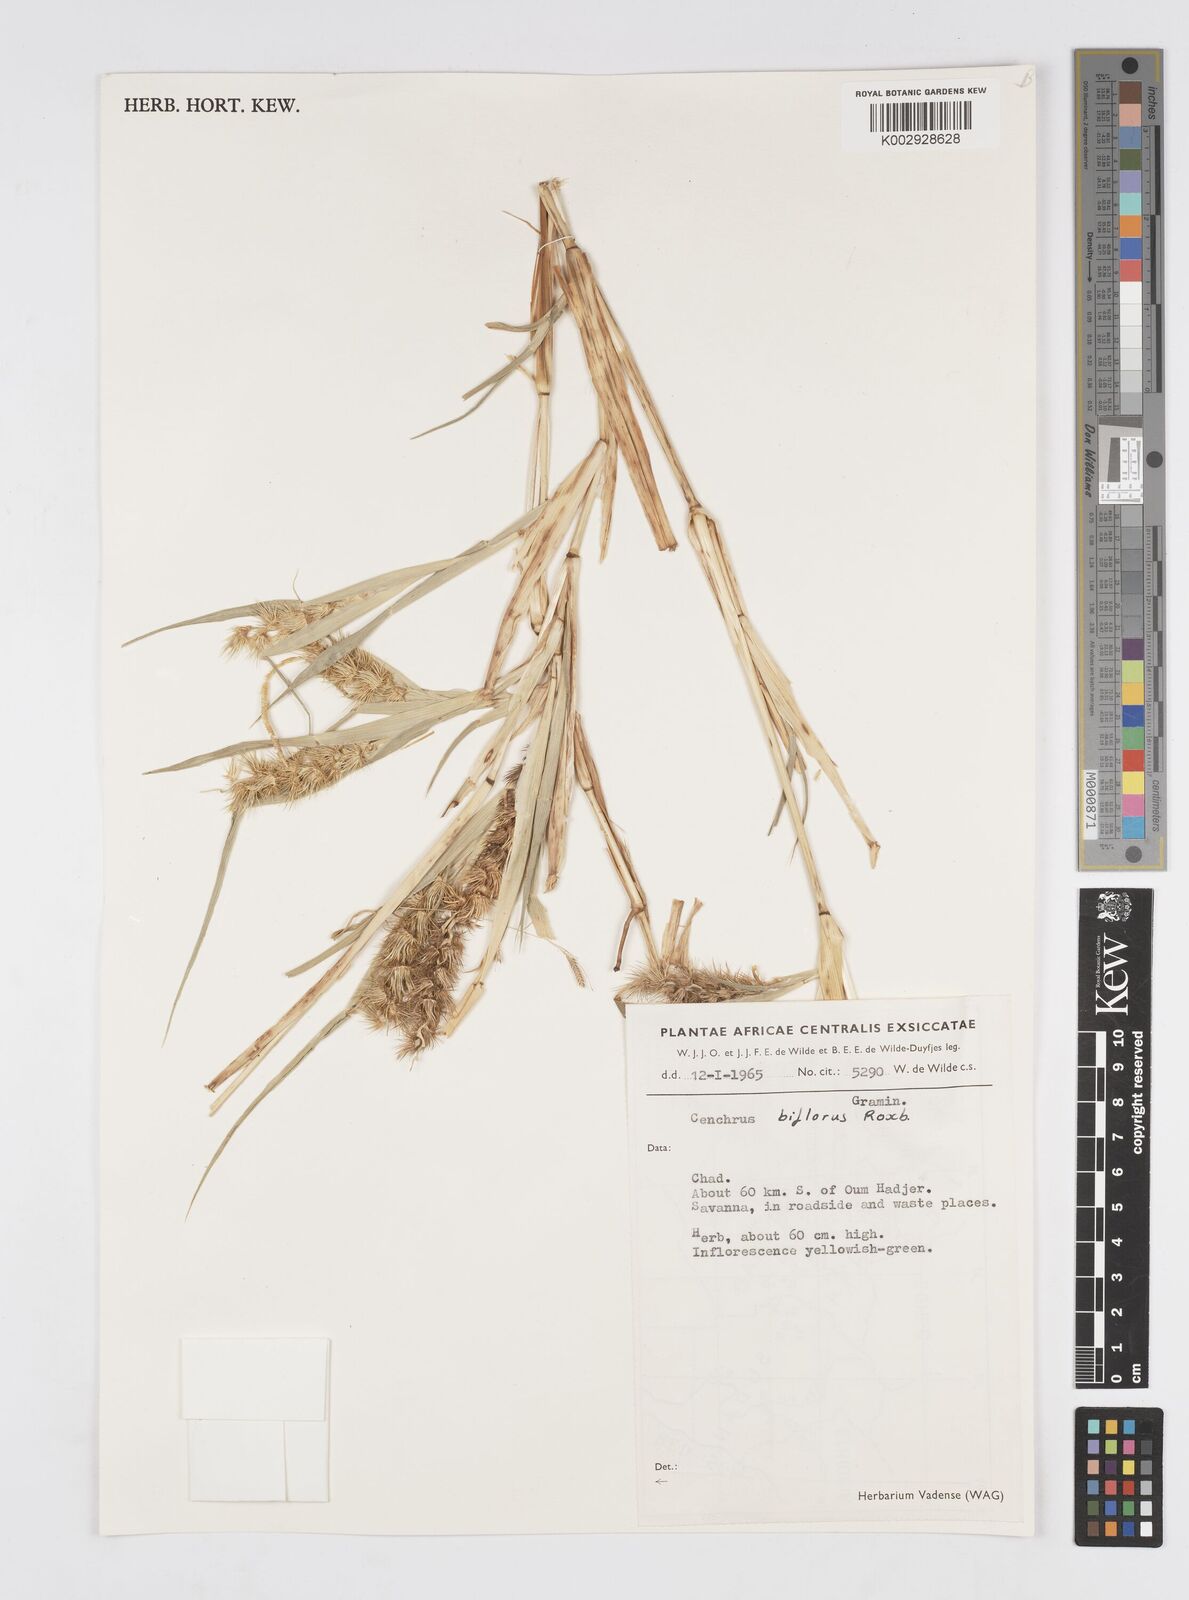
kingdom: Plantae
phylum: Tracheophyta
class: Liliopsida
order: Poales
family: Poaceae
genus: Cenchrus
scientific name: Cenchrus biflorus
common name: Indian sandbur
